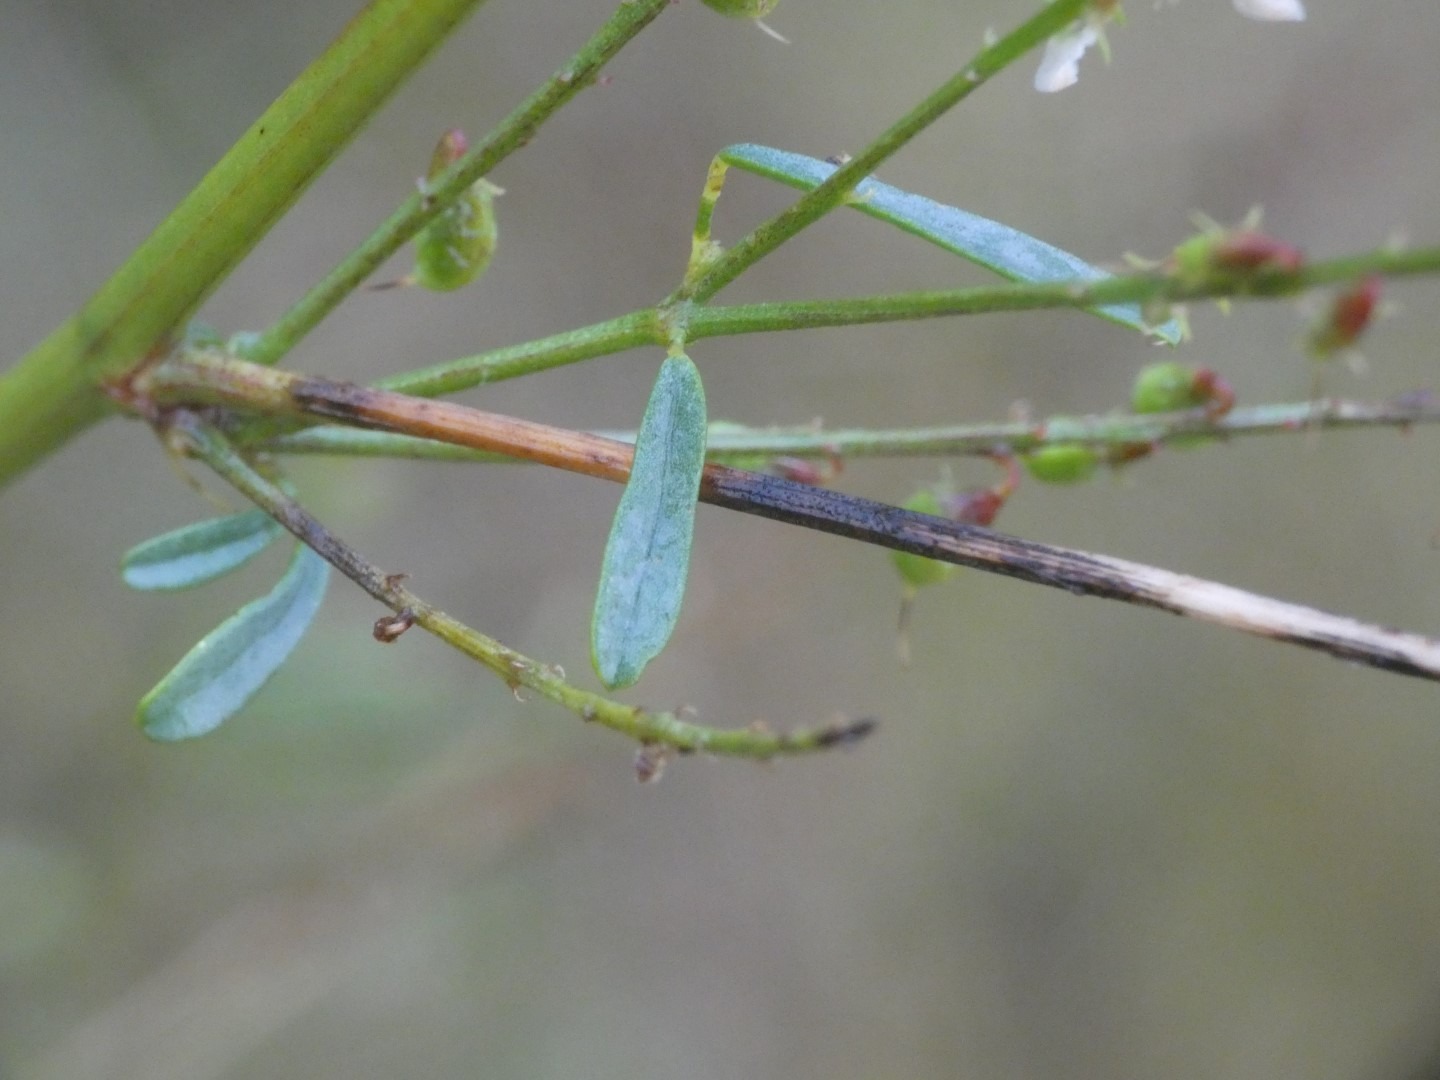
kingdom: Plantae
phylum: Tracheophyta
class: Magnoliopsida
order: Fabales
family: Fabaceae
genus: Melilotus
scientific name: Melilotus albus
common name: Hvid stenkløver
